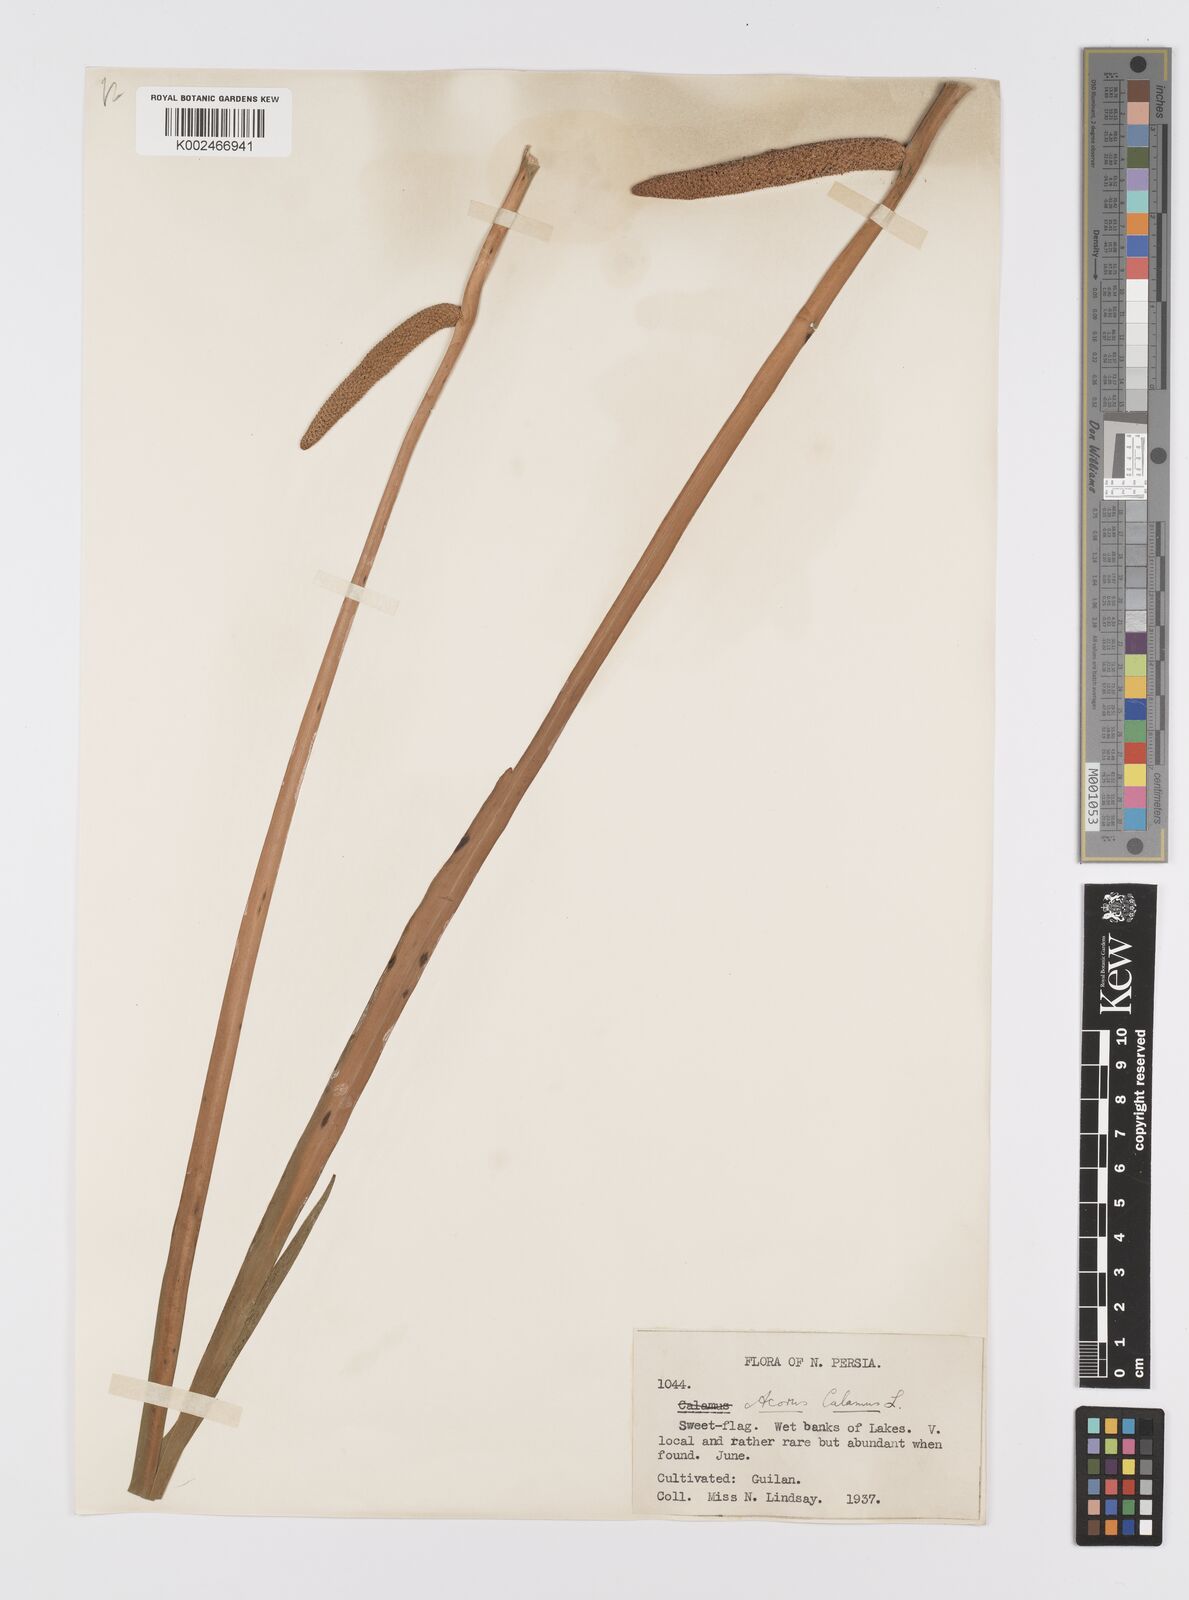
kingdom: Plantae
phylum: Tracheophyta
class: Liliopsida
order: Acorales
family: Acoraceae
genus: Acorus
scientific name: Acorus calamus
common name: Sweet-flag
